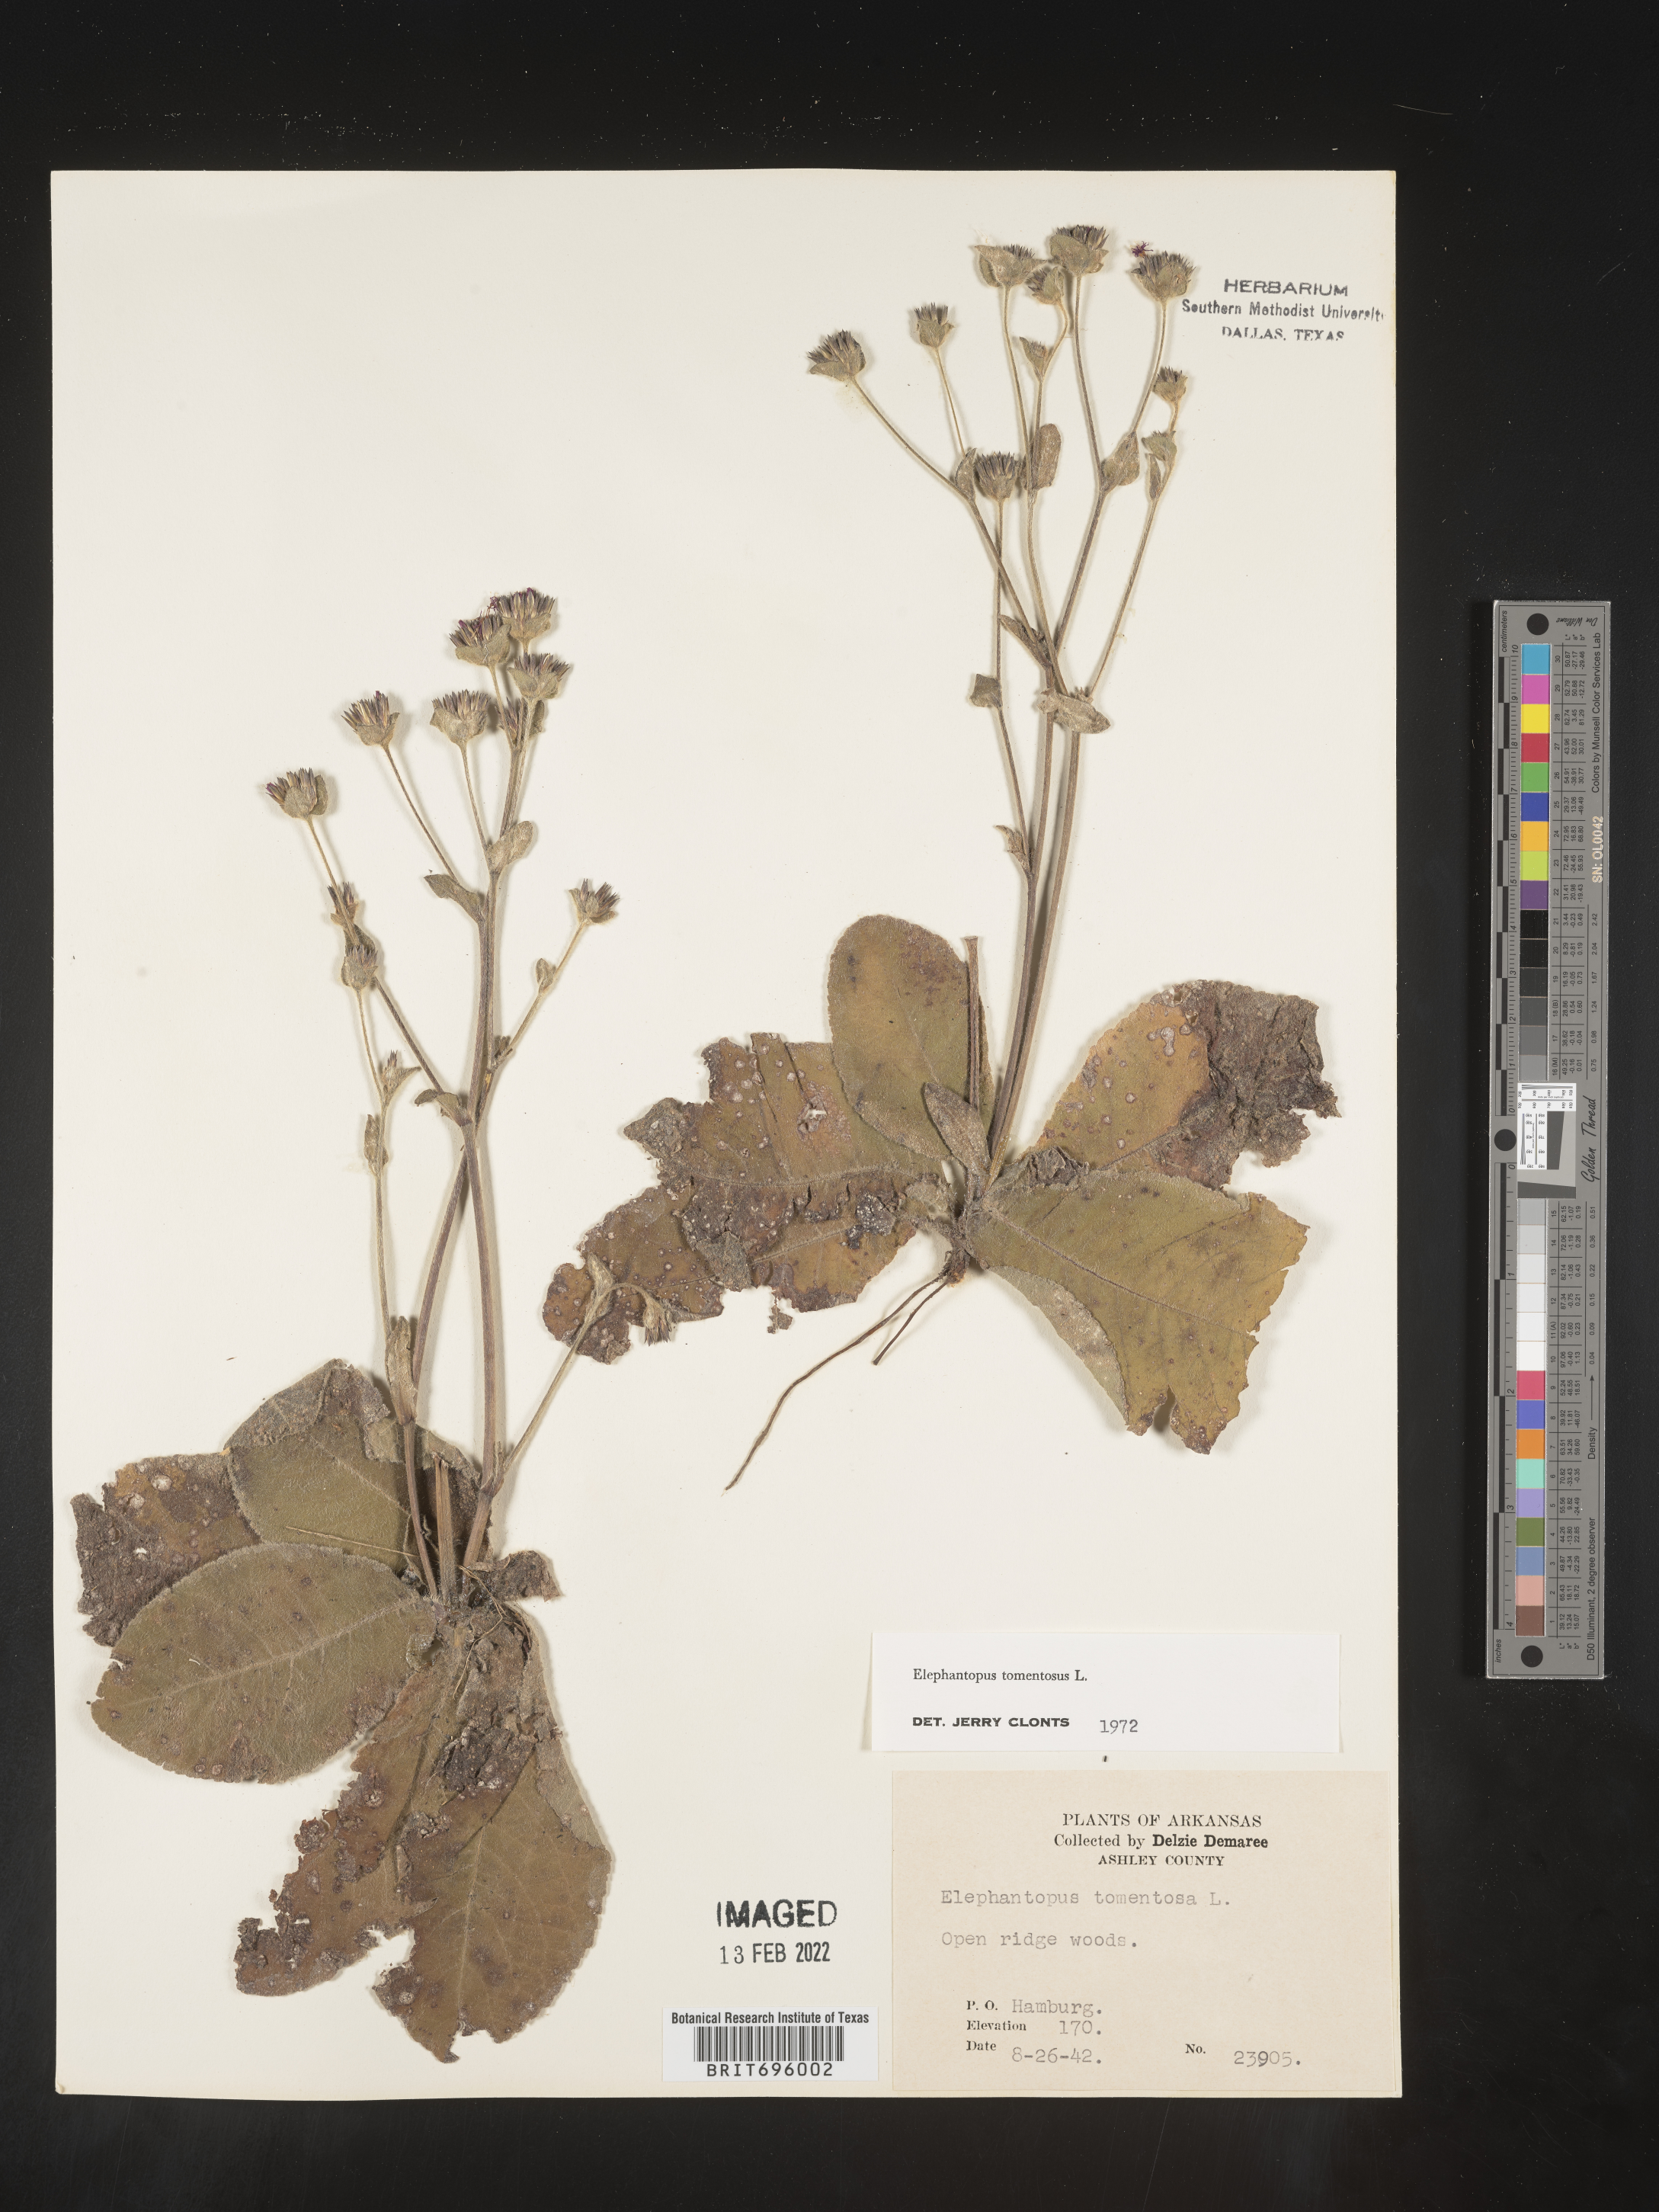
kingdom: Plantae
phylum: Tracheophyta
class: Magnoliopsida
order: Asterales
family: Asteraceae
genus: Elephantopus
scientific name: Elephantopus tomentosus
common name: Tobacco-weed
